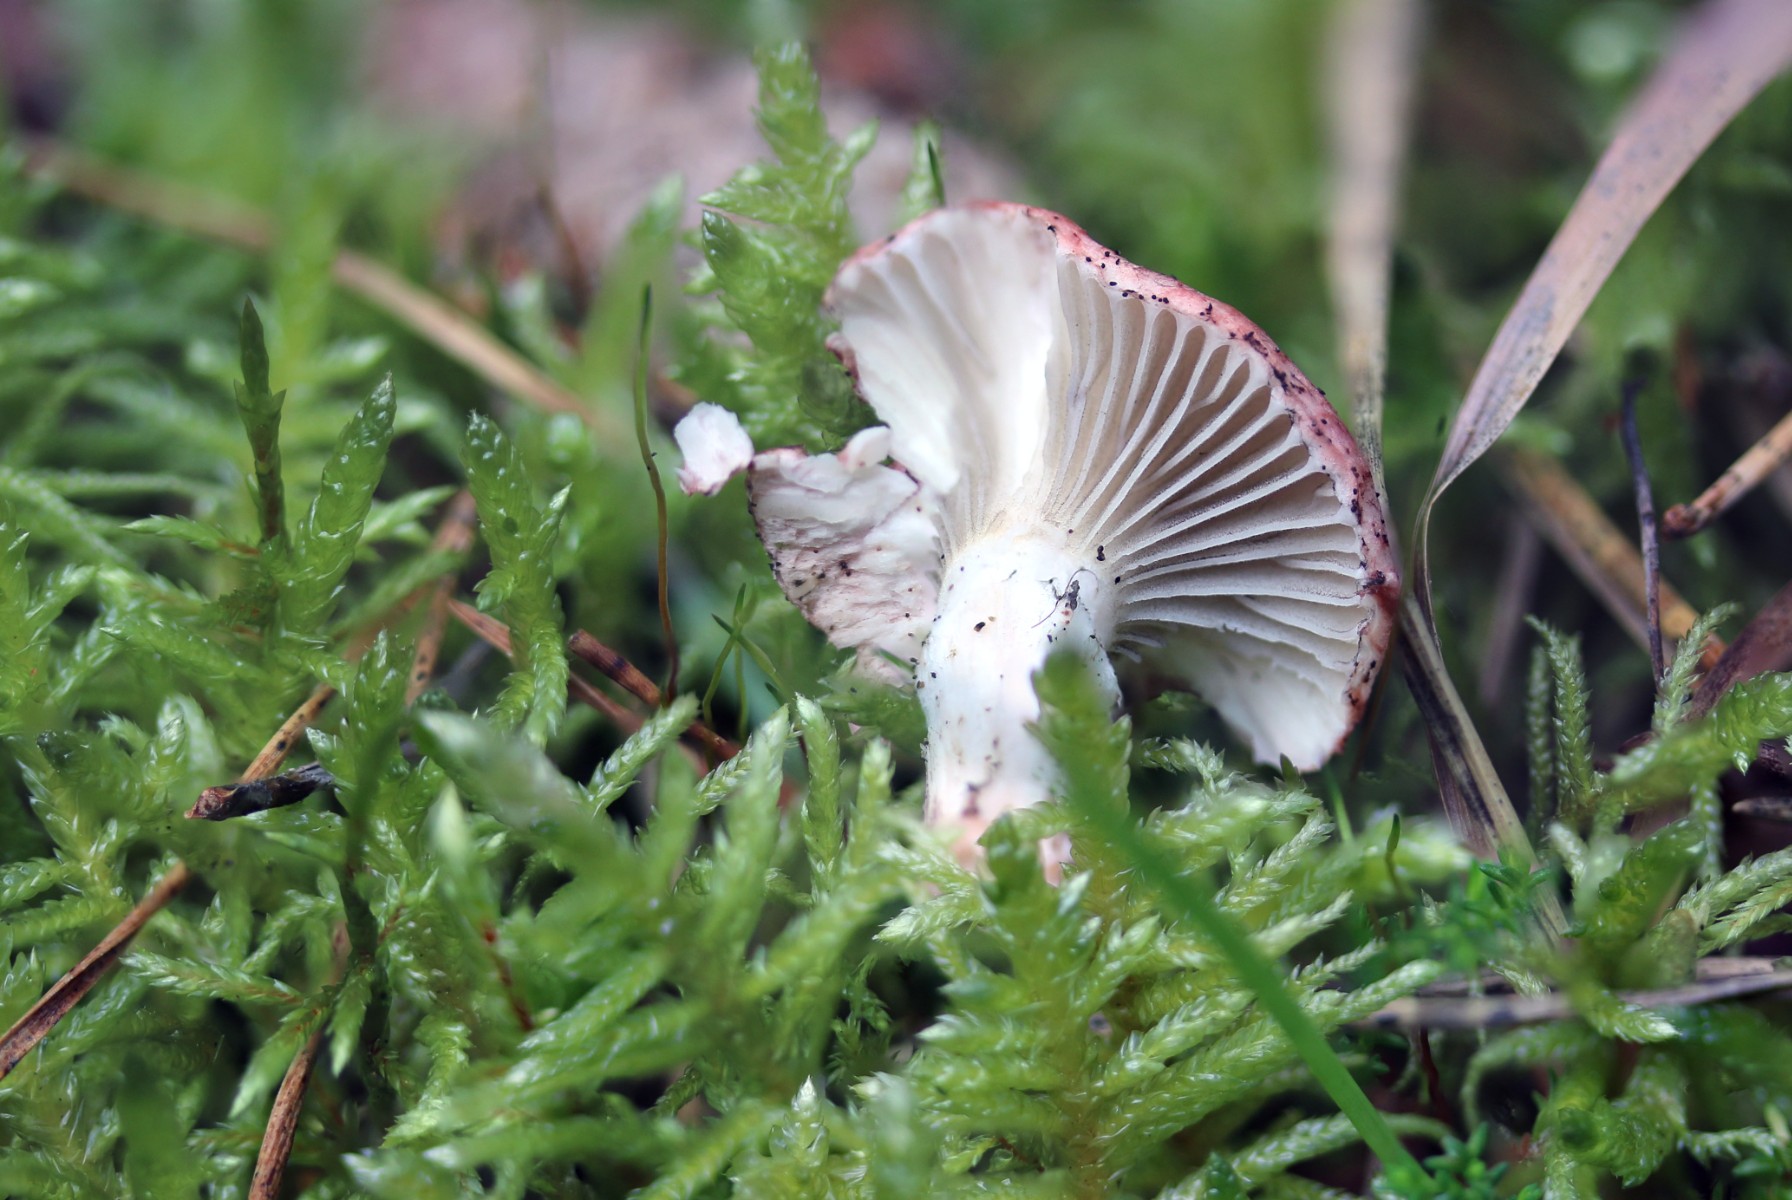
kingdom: Fungi
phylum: Basidiomycota
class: Agaricomycetes
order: Boletales
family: Gomphidiaceae
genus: Gomphidius
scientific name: Gomphidius roseus
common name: rosenrød slimslør
